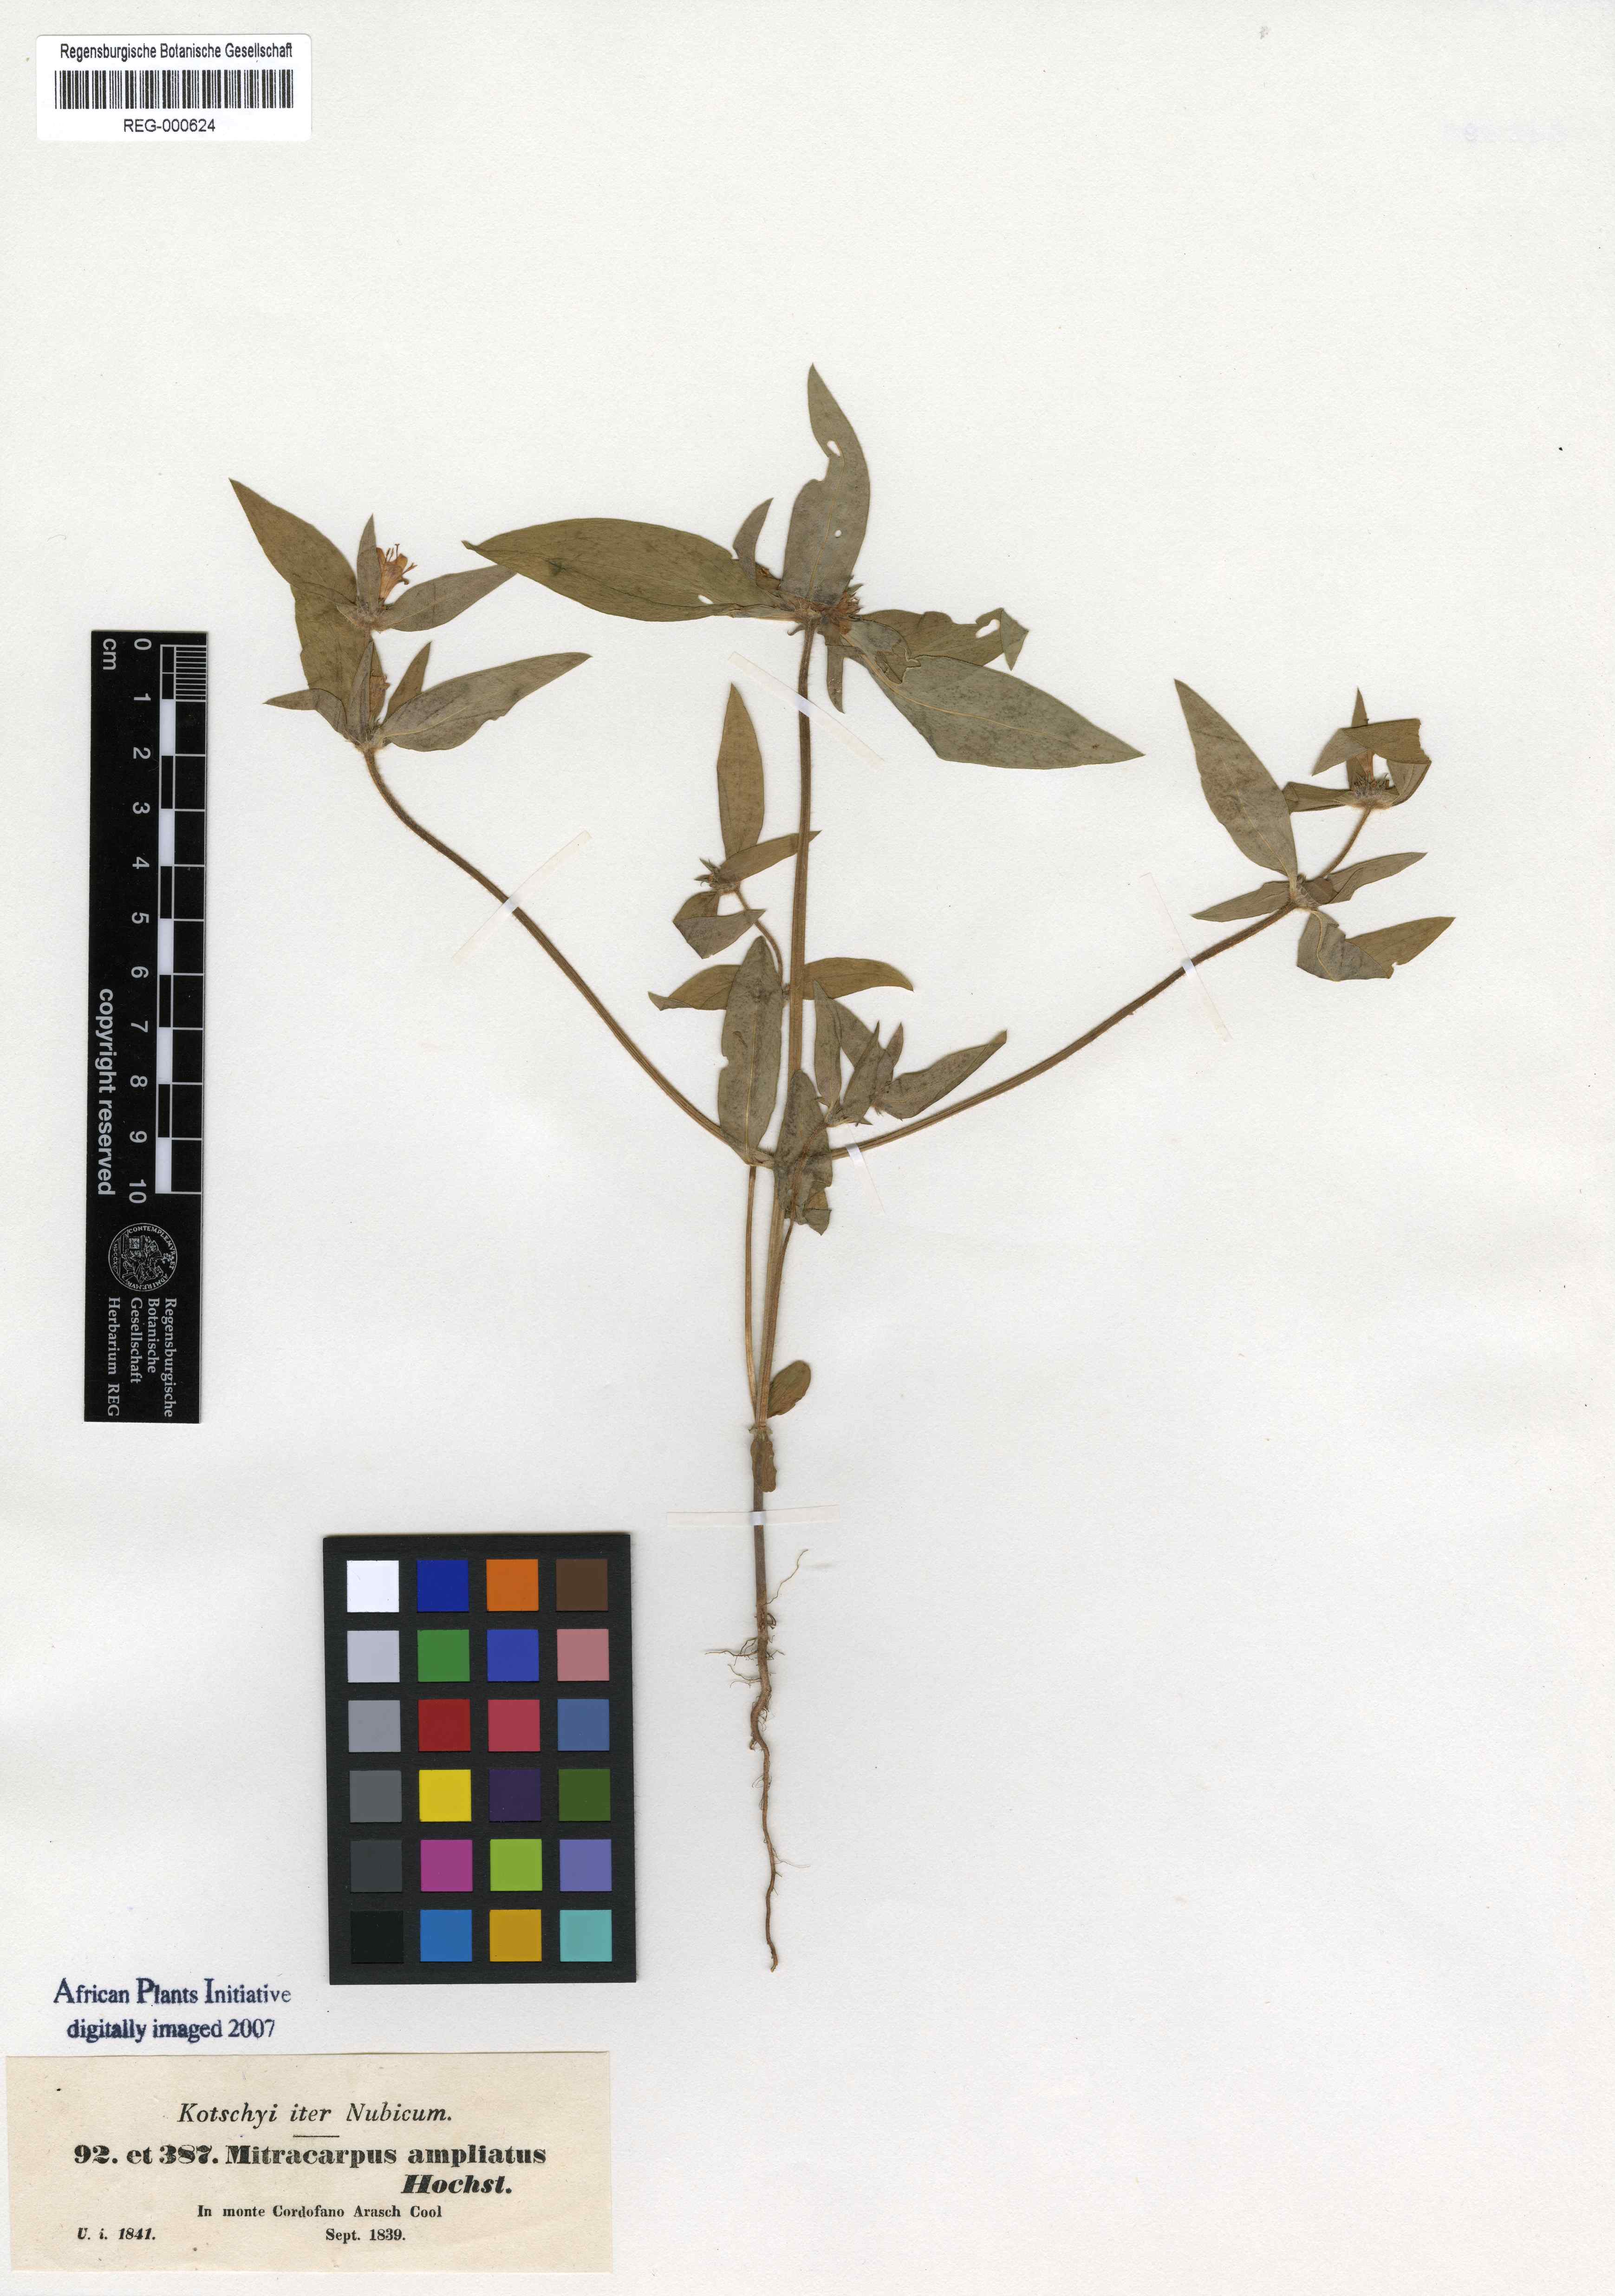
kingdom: Plantae
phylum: Tracheophyta
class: Magnoliopsida
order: Gentianales
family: Rubiaceae
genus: Spermacoce
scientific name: Spermacoce sphaerostigma
